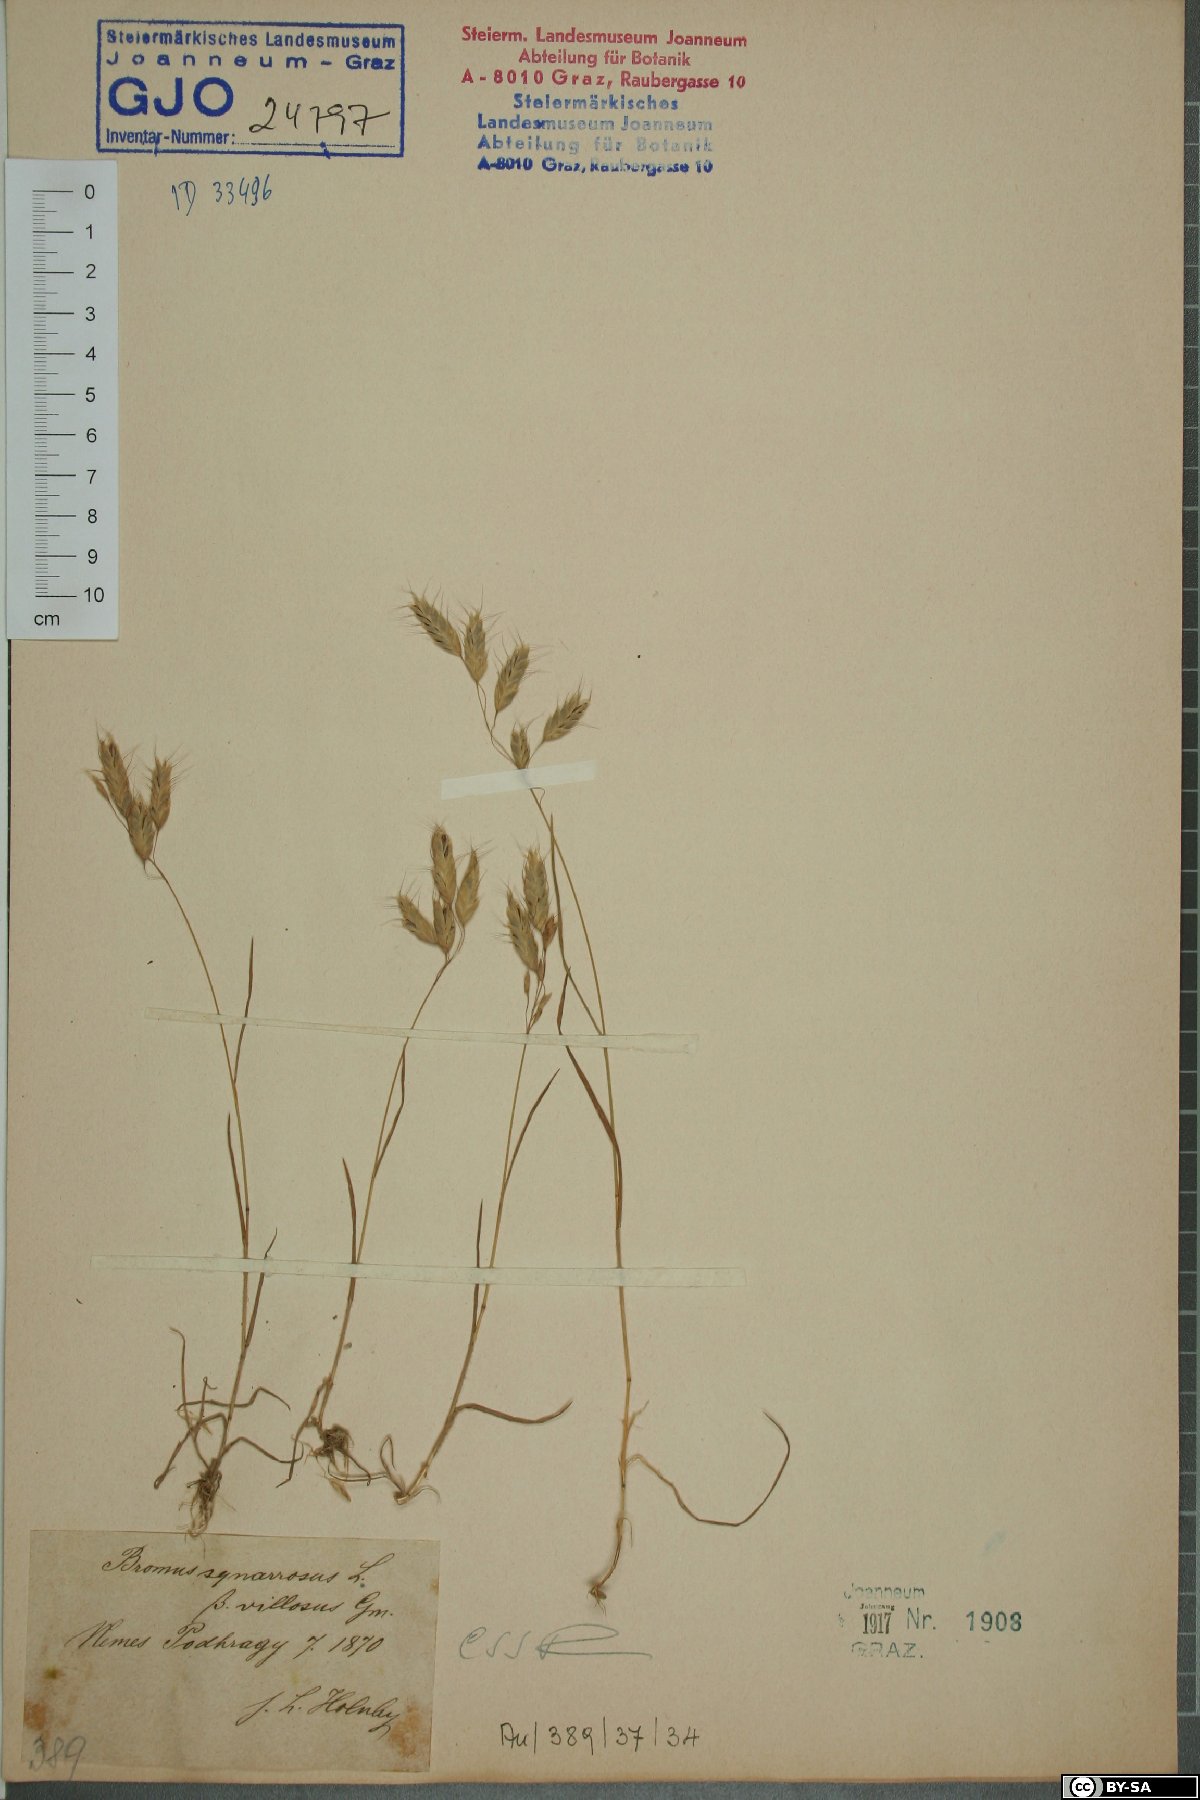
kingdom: Plantae
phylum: Tracheophyta
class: Liliopsida
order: Poales
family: Poaceae
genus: Bromus
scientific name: Bromus squarrosus
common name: Corn brome
